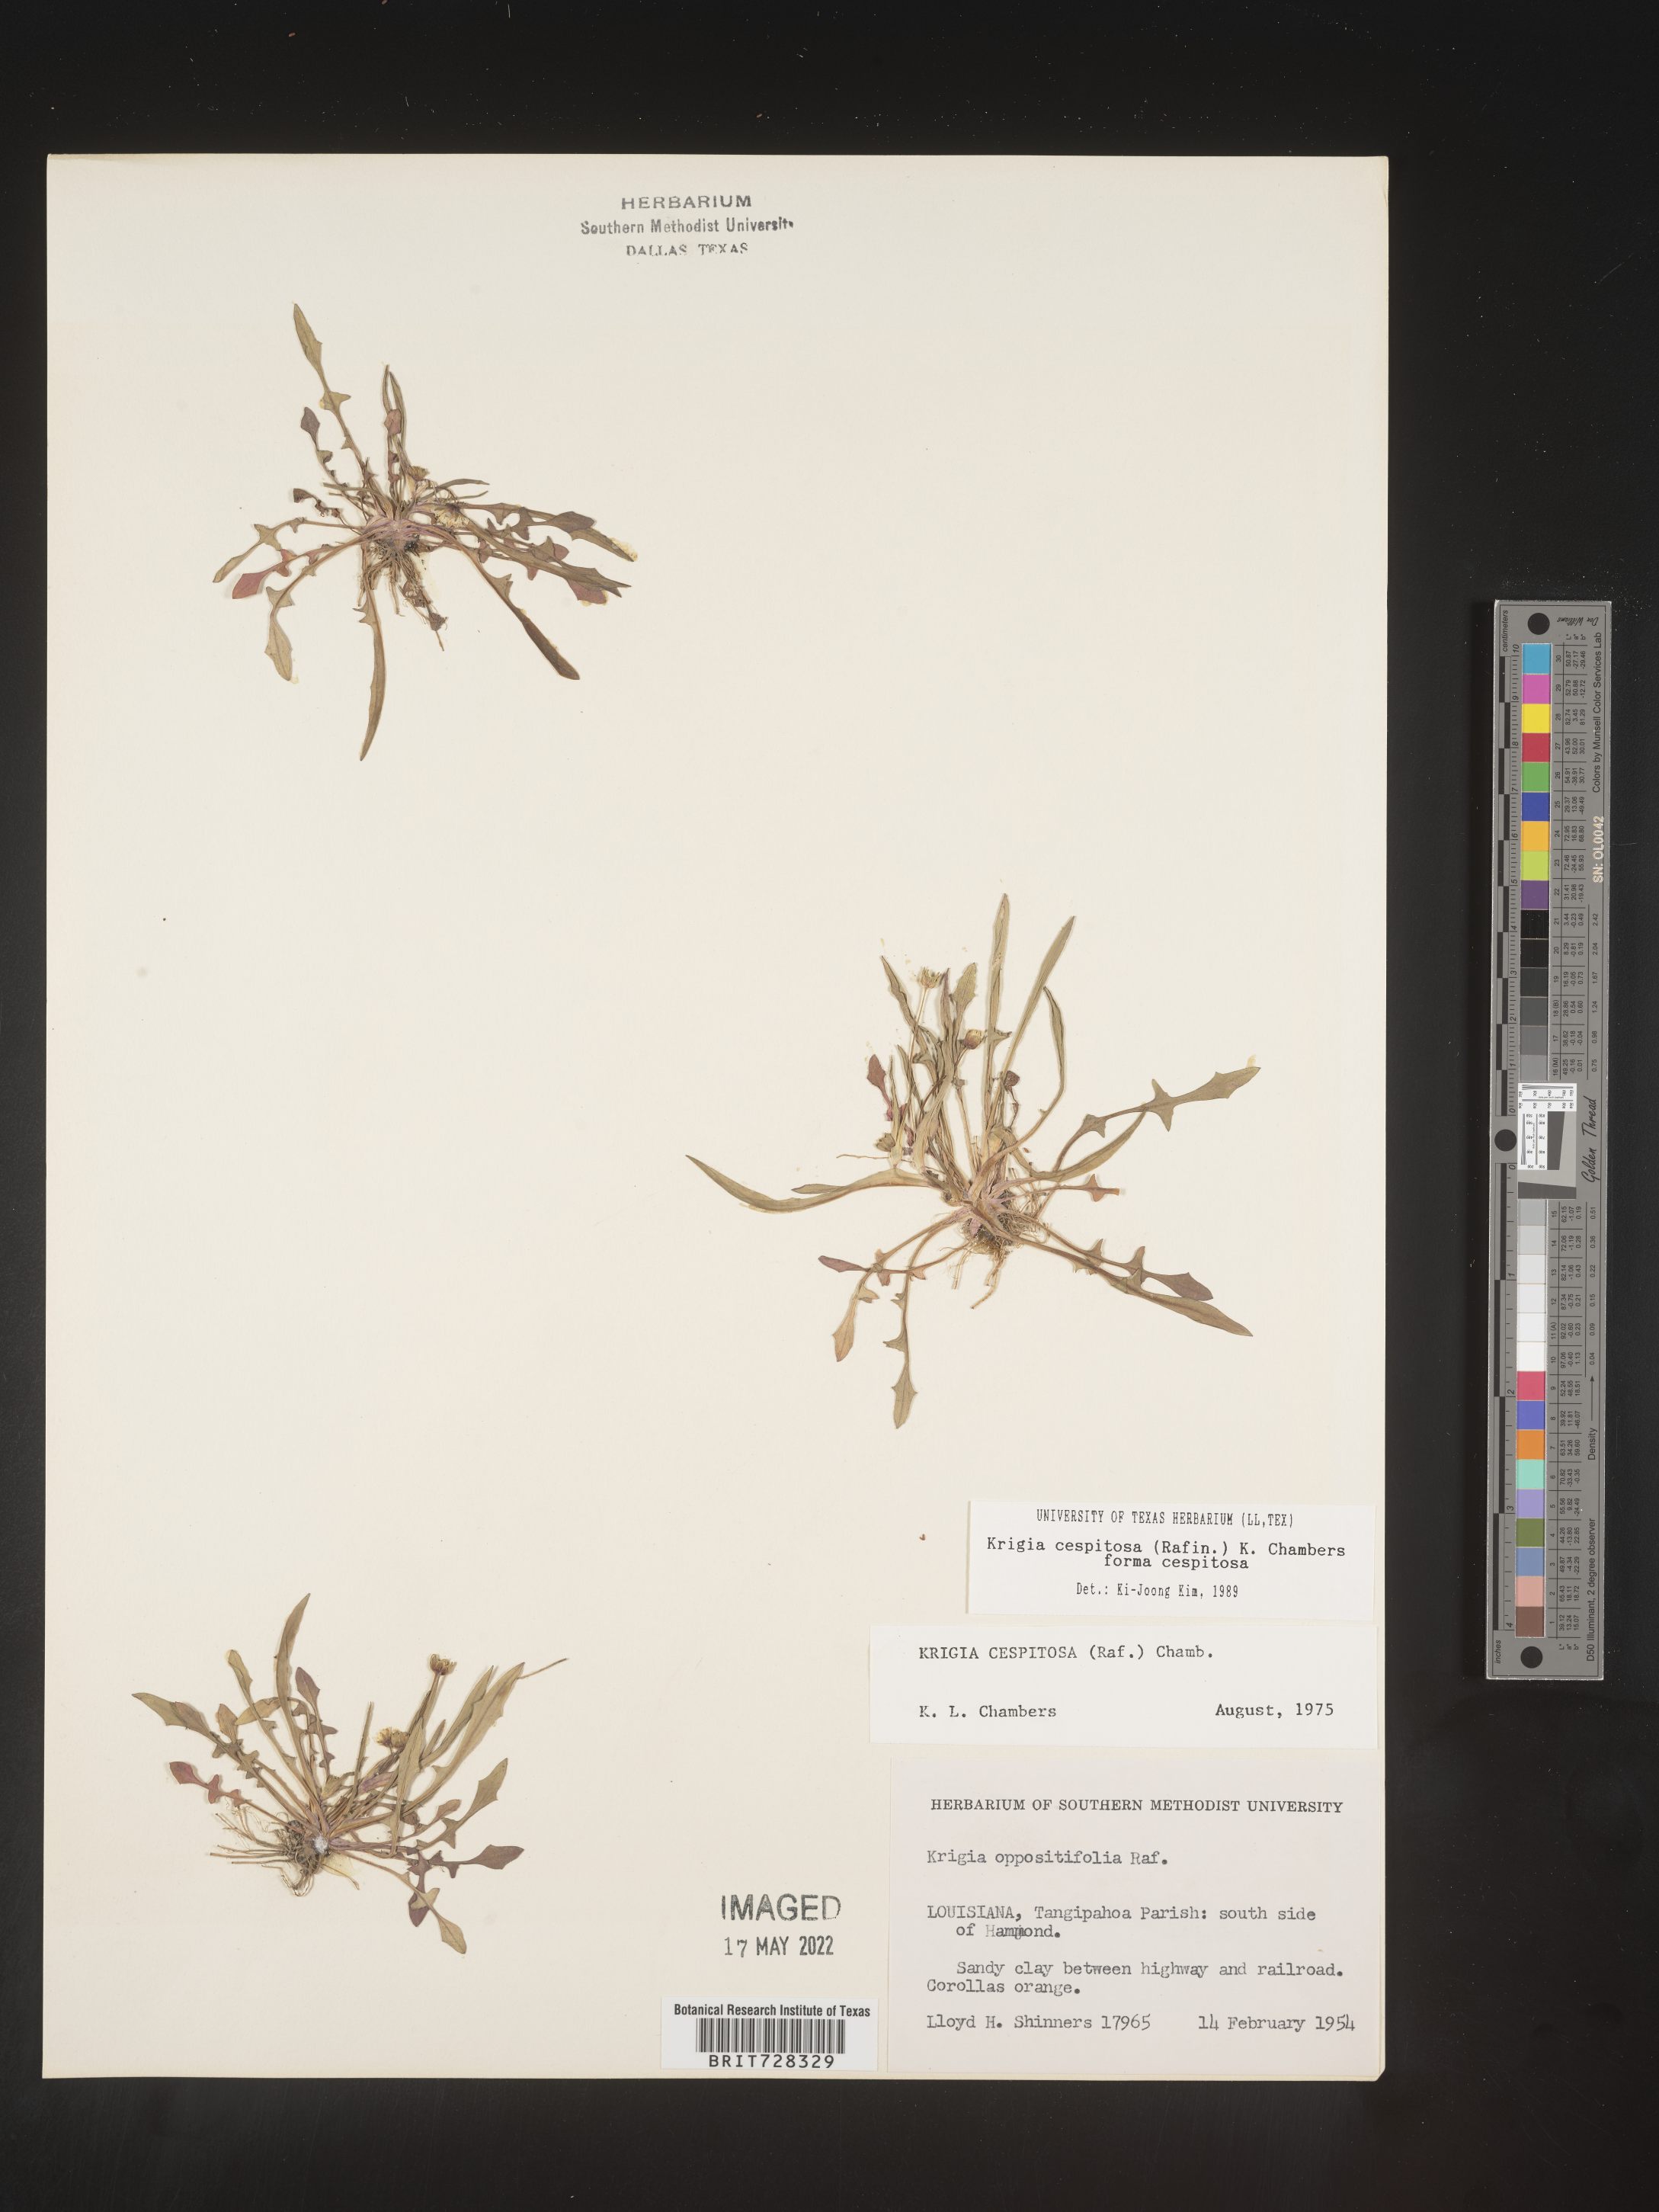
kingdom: Plantae
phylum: Tracheophyta
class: Magnoliopsida
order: Asterales
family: Asteraceae
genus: Krigia
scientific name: Krigia caespitosa
